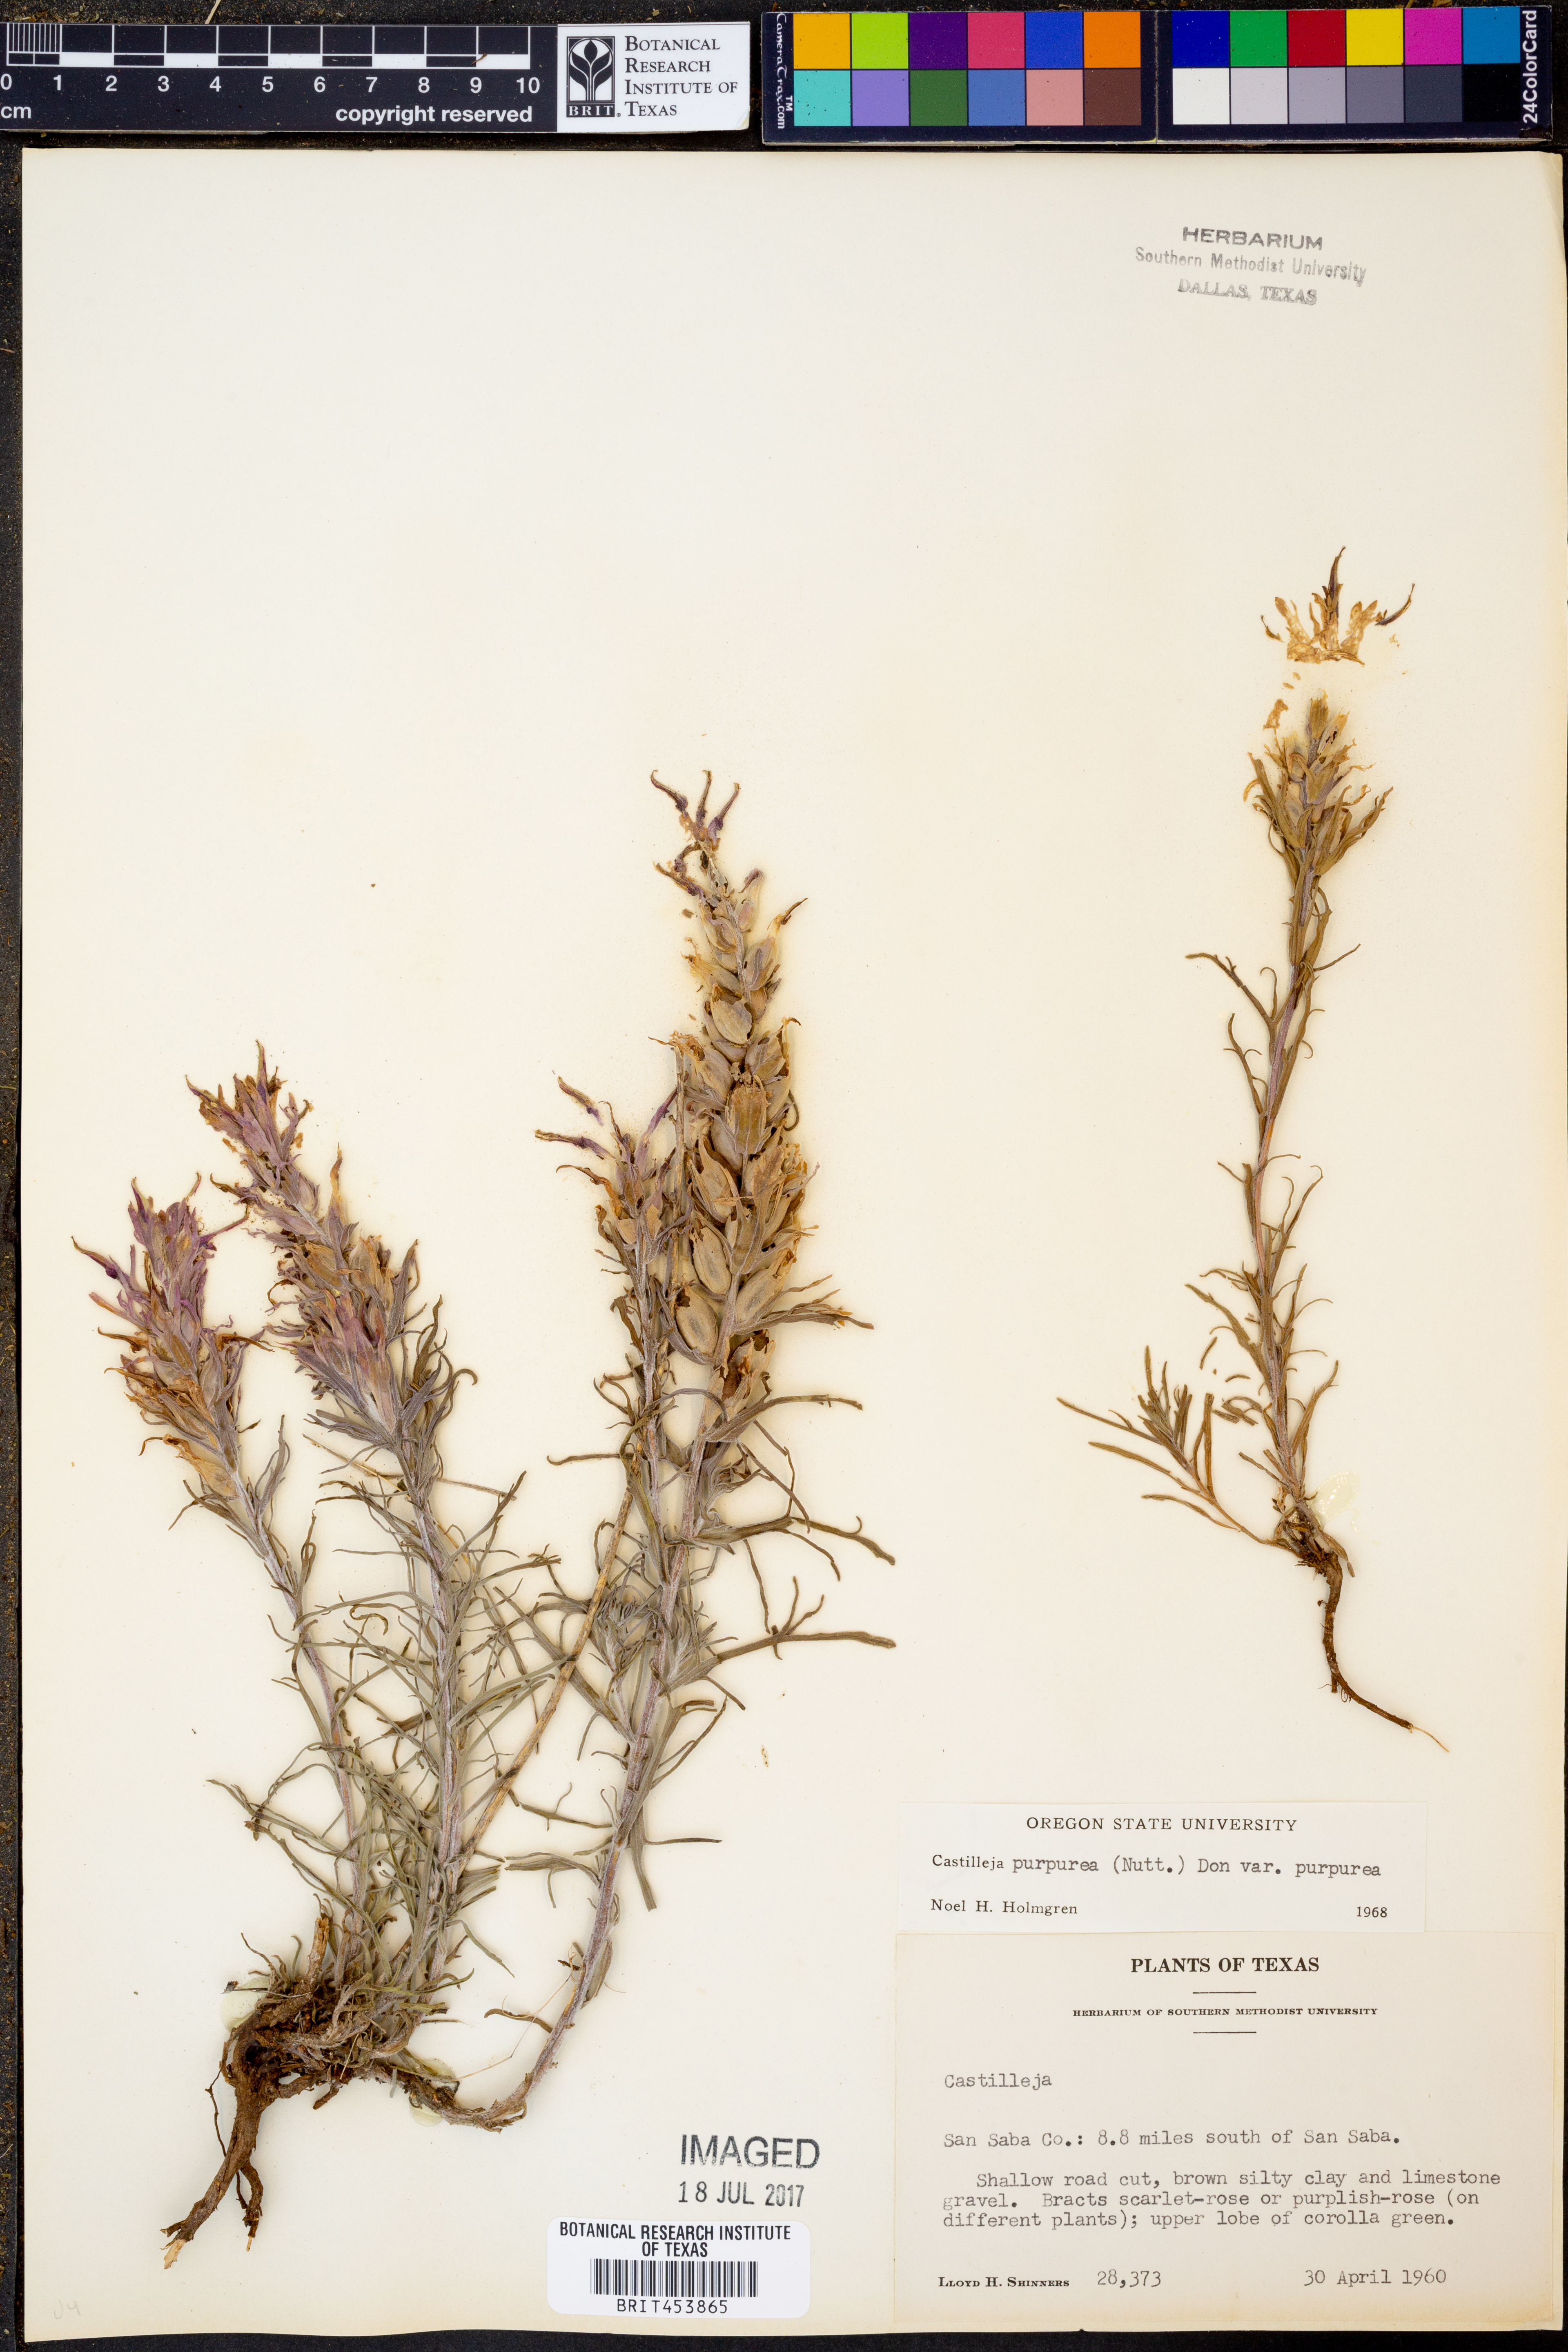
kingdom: Plantae
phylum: Tracheophyta
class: Magnoliopsida
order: Lamiales
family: Orobanchaceae
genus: Castilleja
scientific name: Castilleja purpurea
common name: Plains paintbrush
